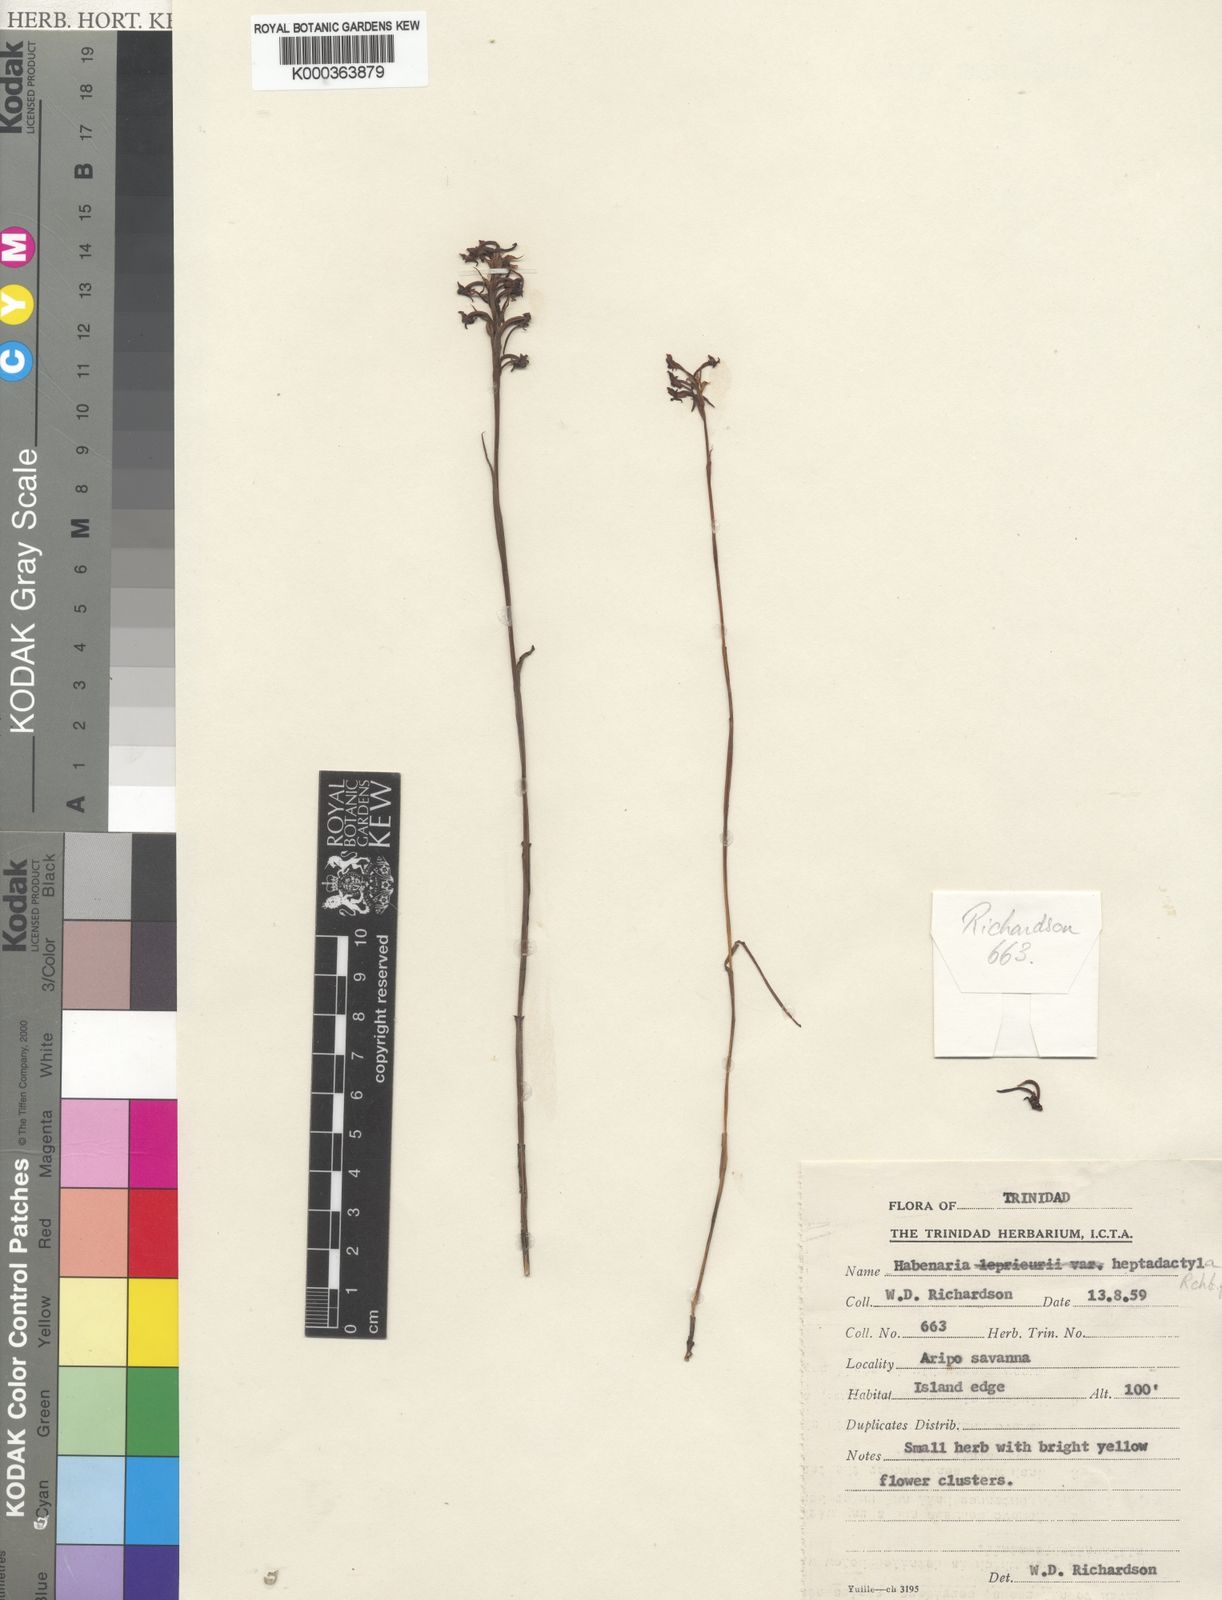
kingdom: Plantae
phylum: Tracheophyta
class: Liliopsida
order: Asparagales
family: Orchidaceae
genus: Habenaria
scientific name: Habenaria heptadactyla
